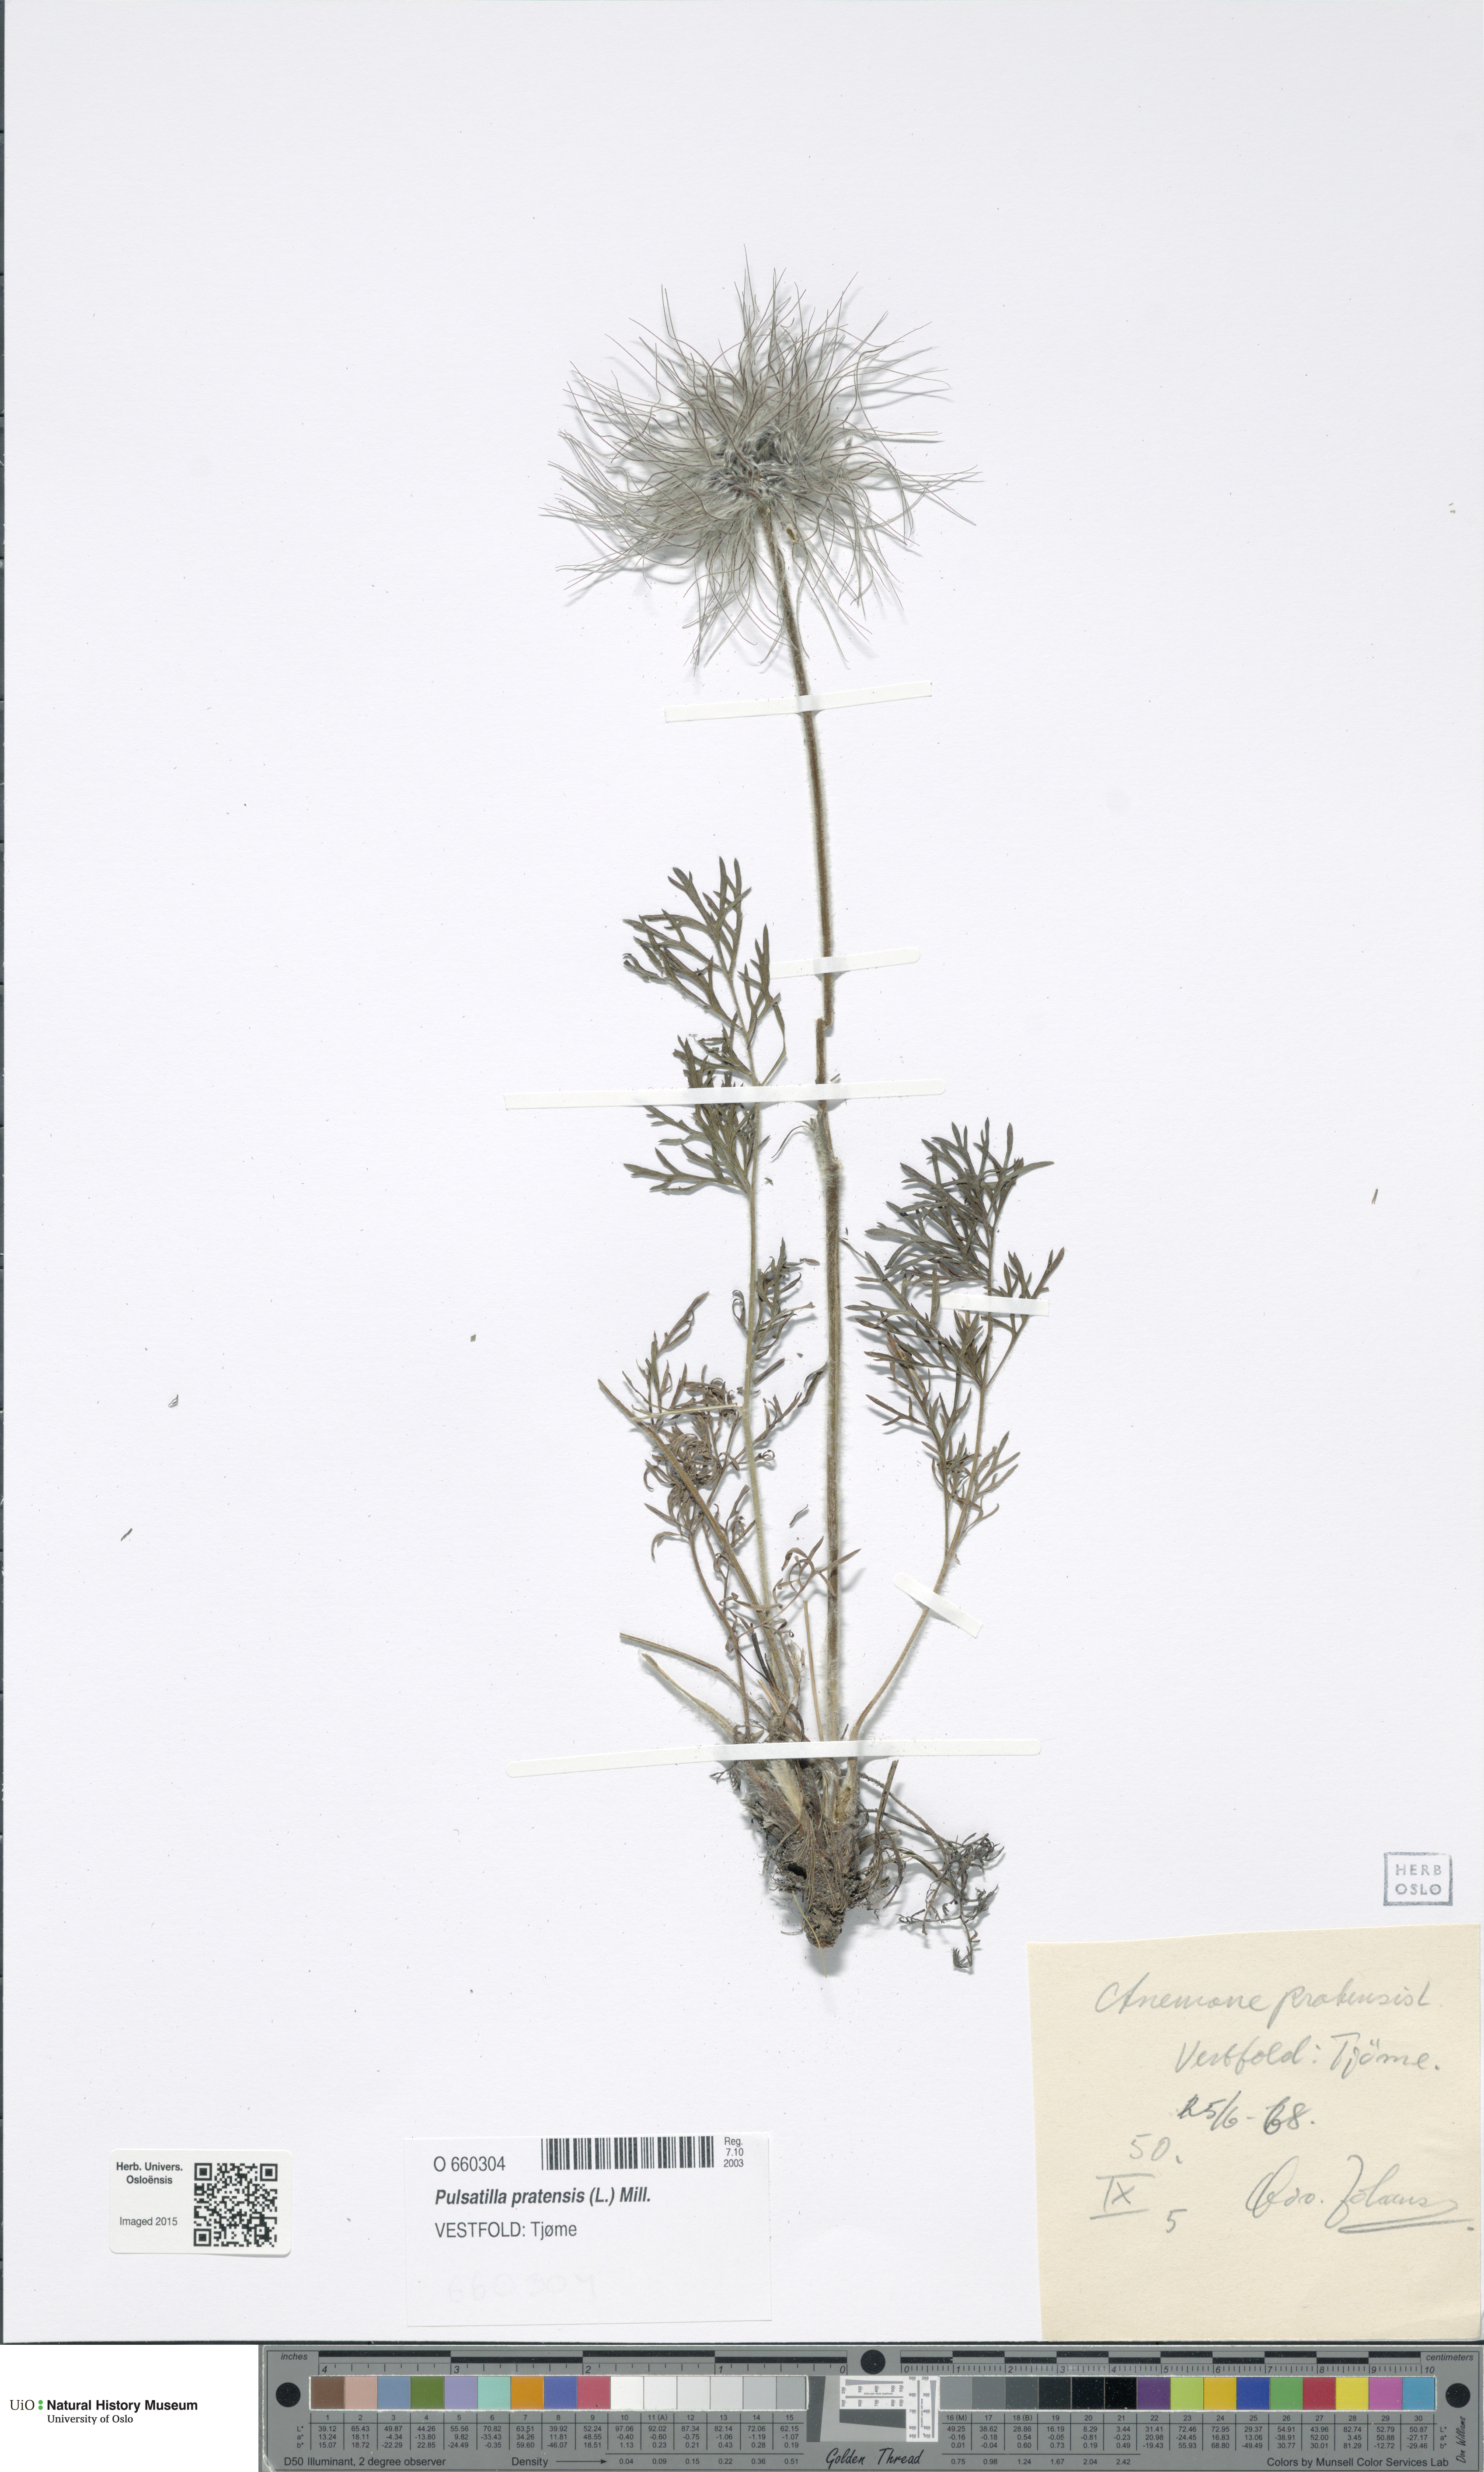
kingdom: Plantae
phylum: Tracheophyta
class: Magnoliopsida
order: Ranunculales
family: Ranunculaceae
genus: Pulsatilla
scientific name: Pulsatilla pratensis
